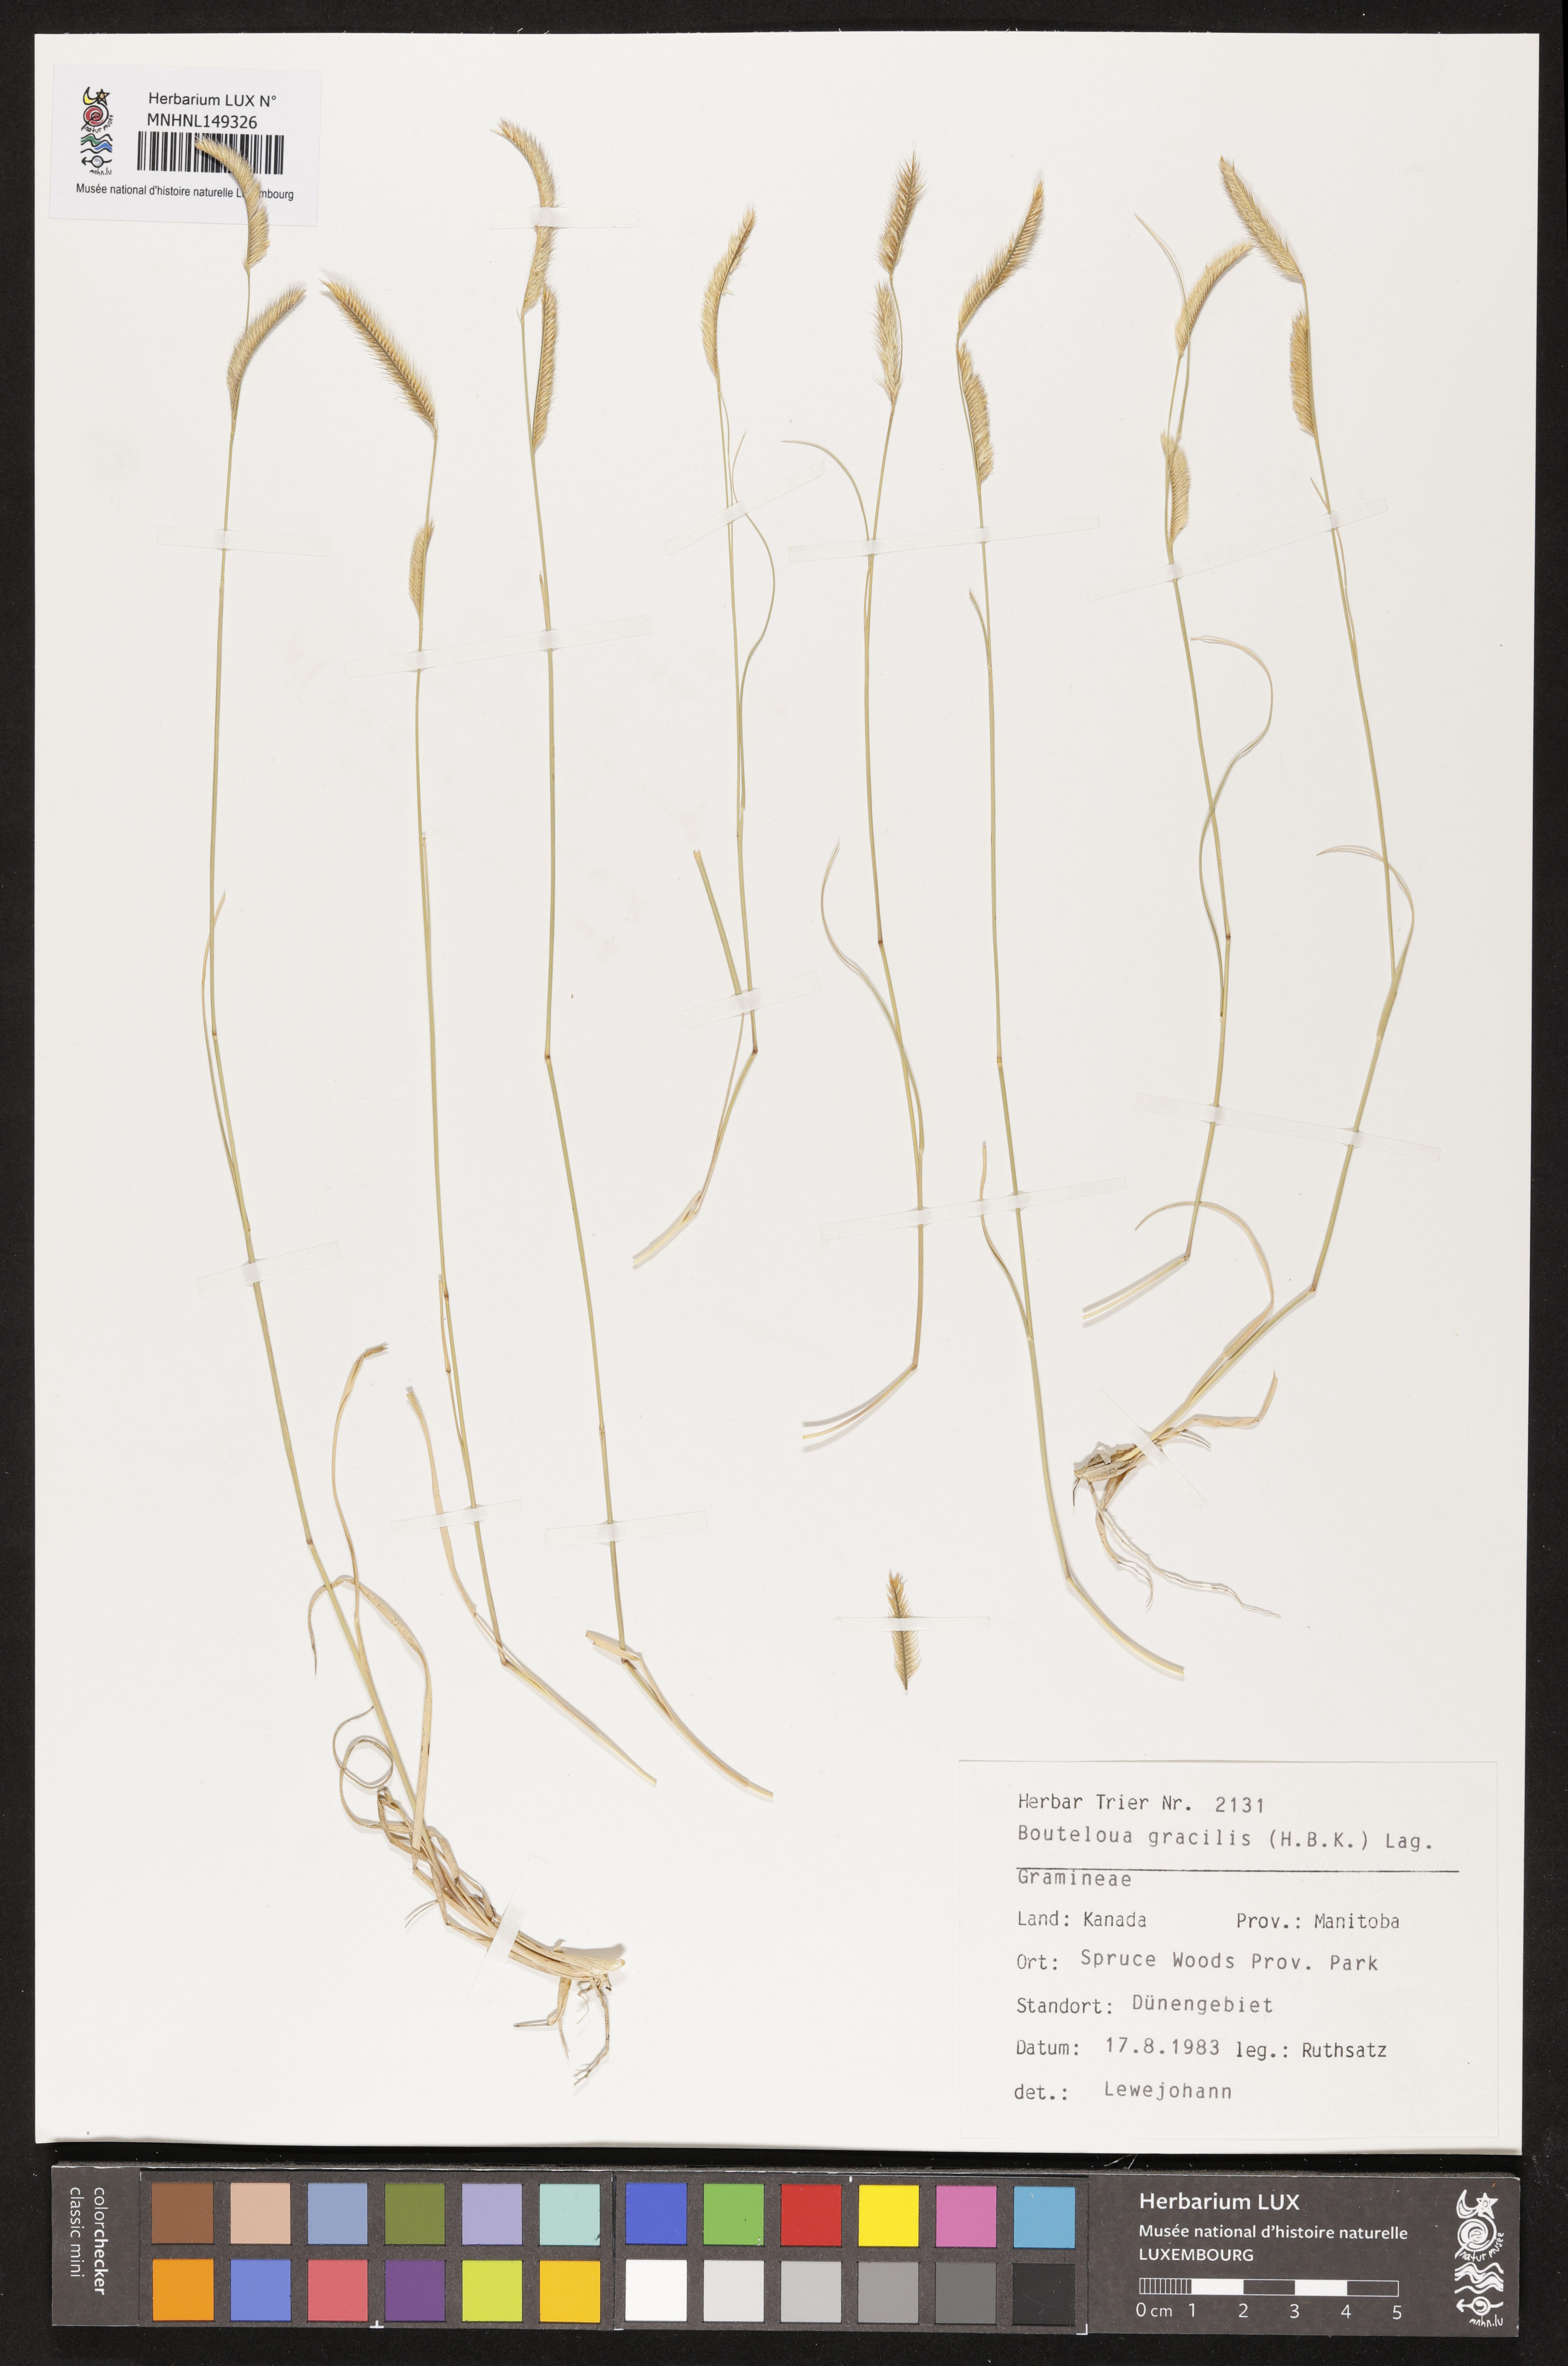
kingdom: Plantae
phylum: Tracheophyta
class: Liliopsida
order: Poales
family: Poaceae
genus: Bouteloua
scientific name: Bouteloua gracilis
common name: Blue grama
